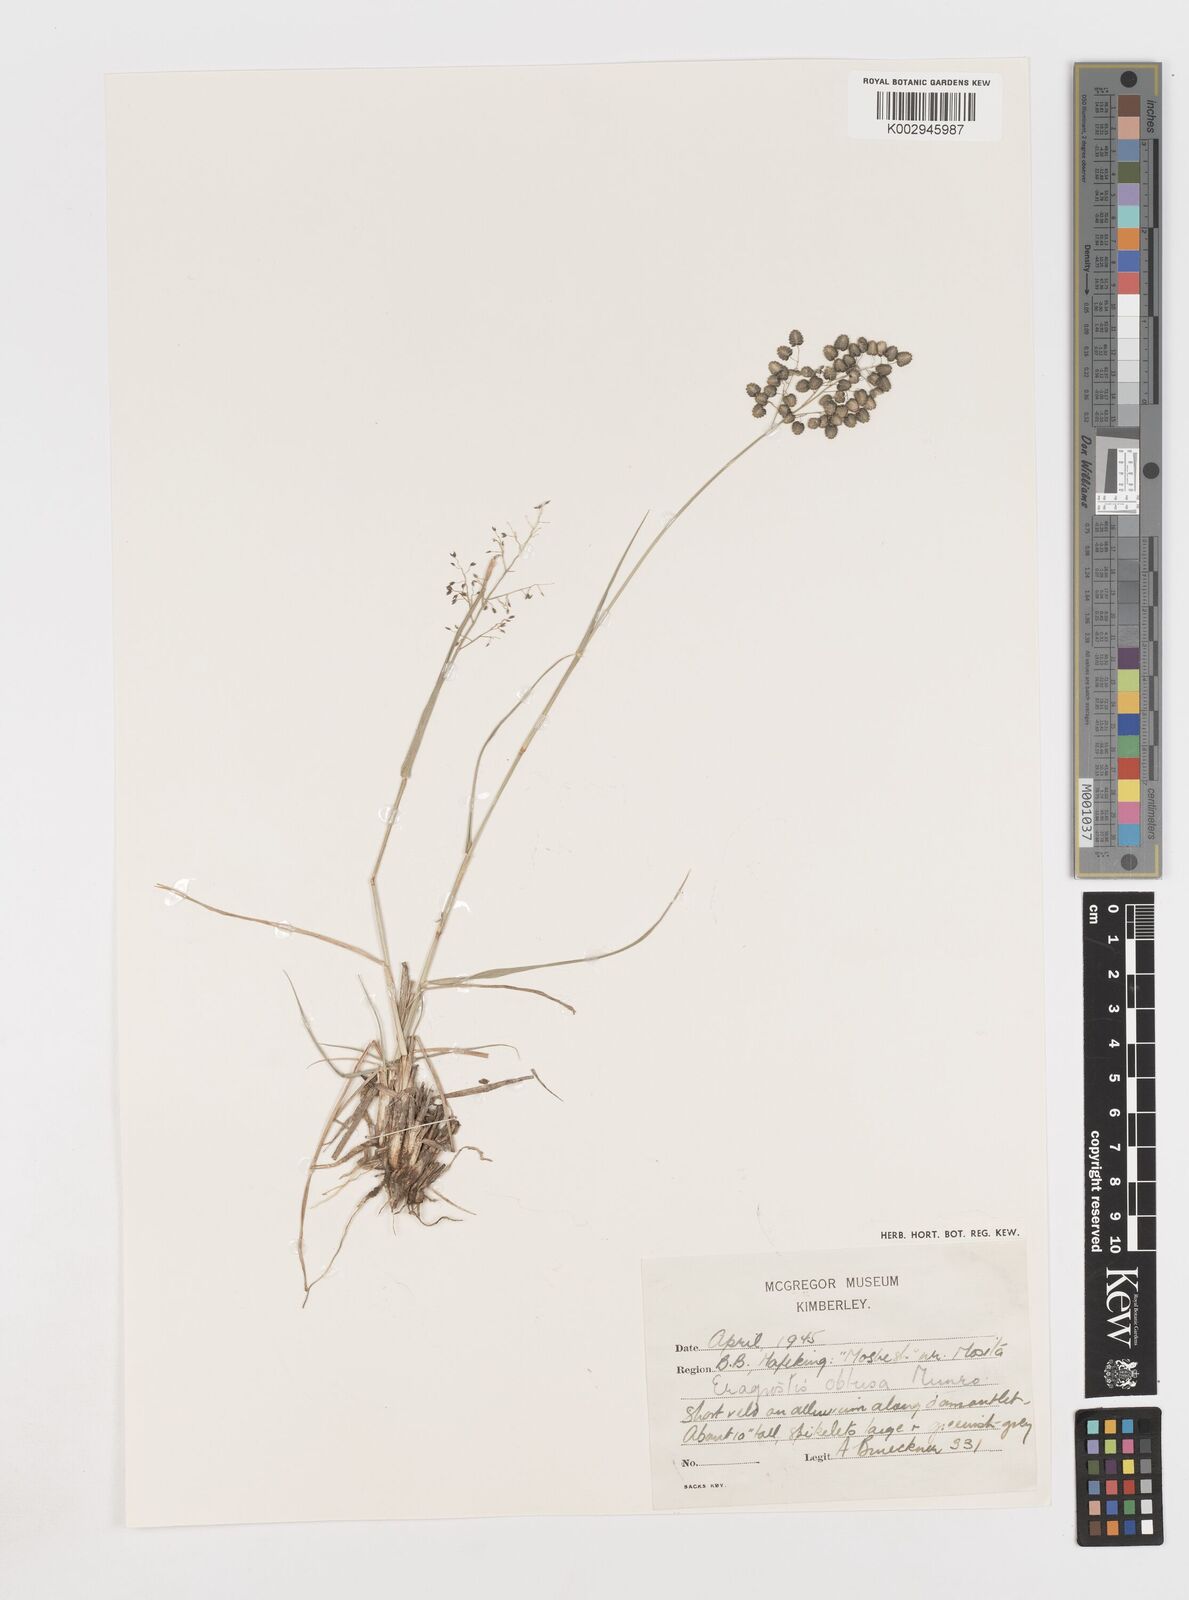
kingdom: Plantae
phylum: Tracheophyta
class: Liliopsida
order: Poales
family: Poaceae
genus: Eragrostis
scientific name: Eragrostis obtusa
